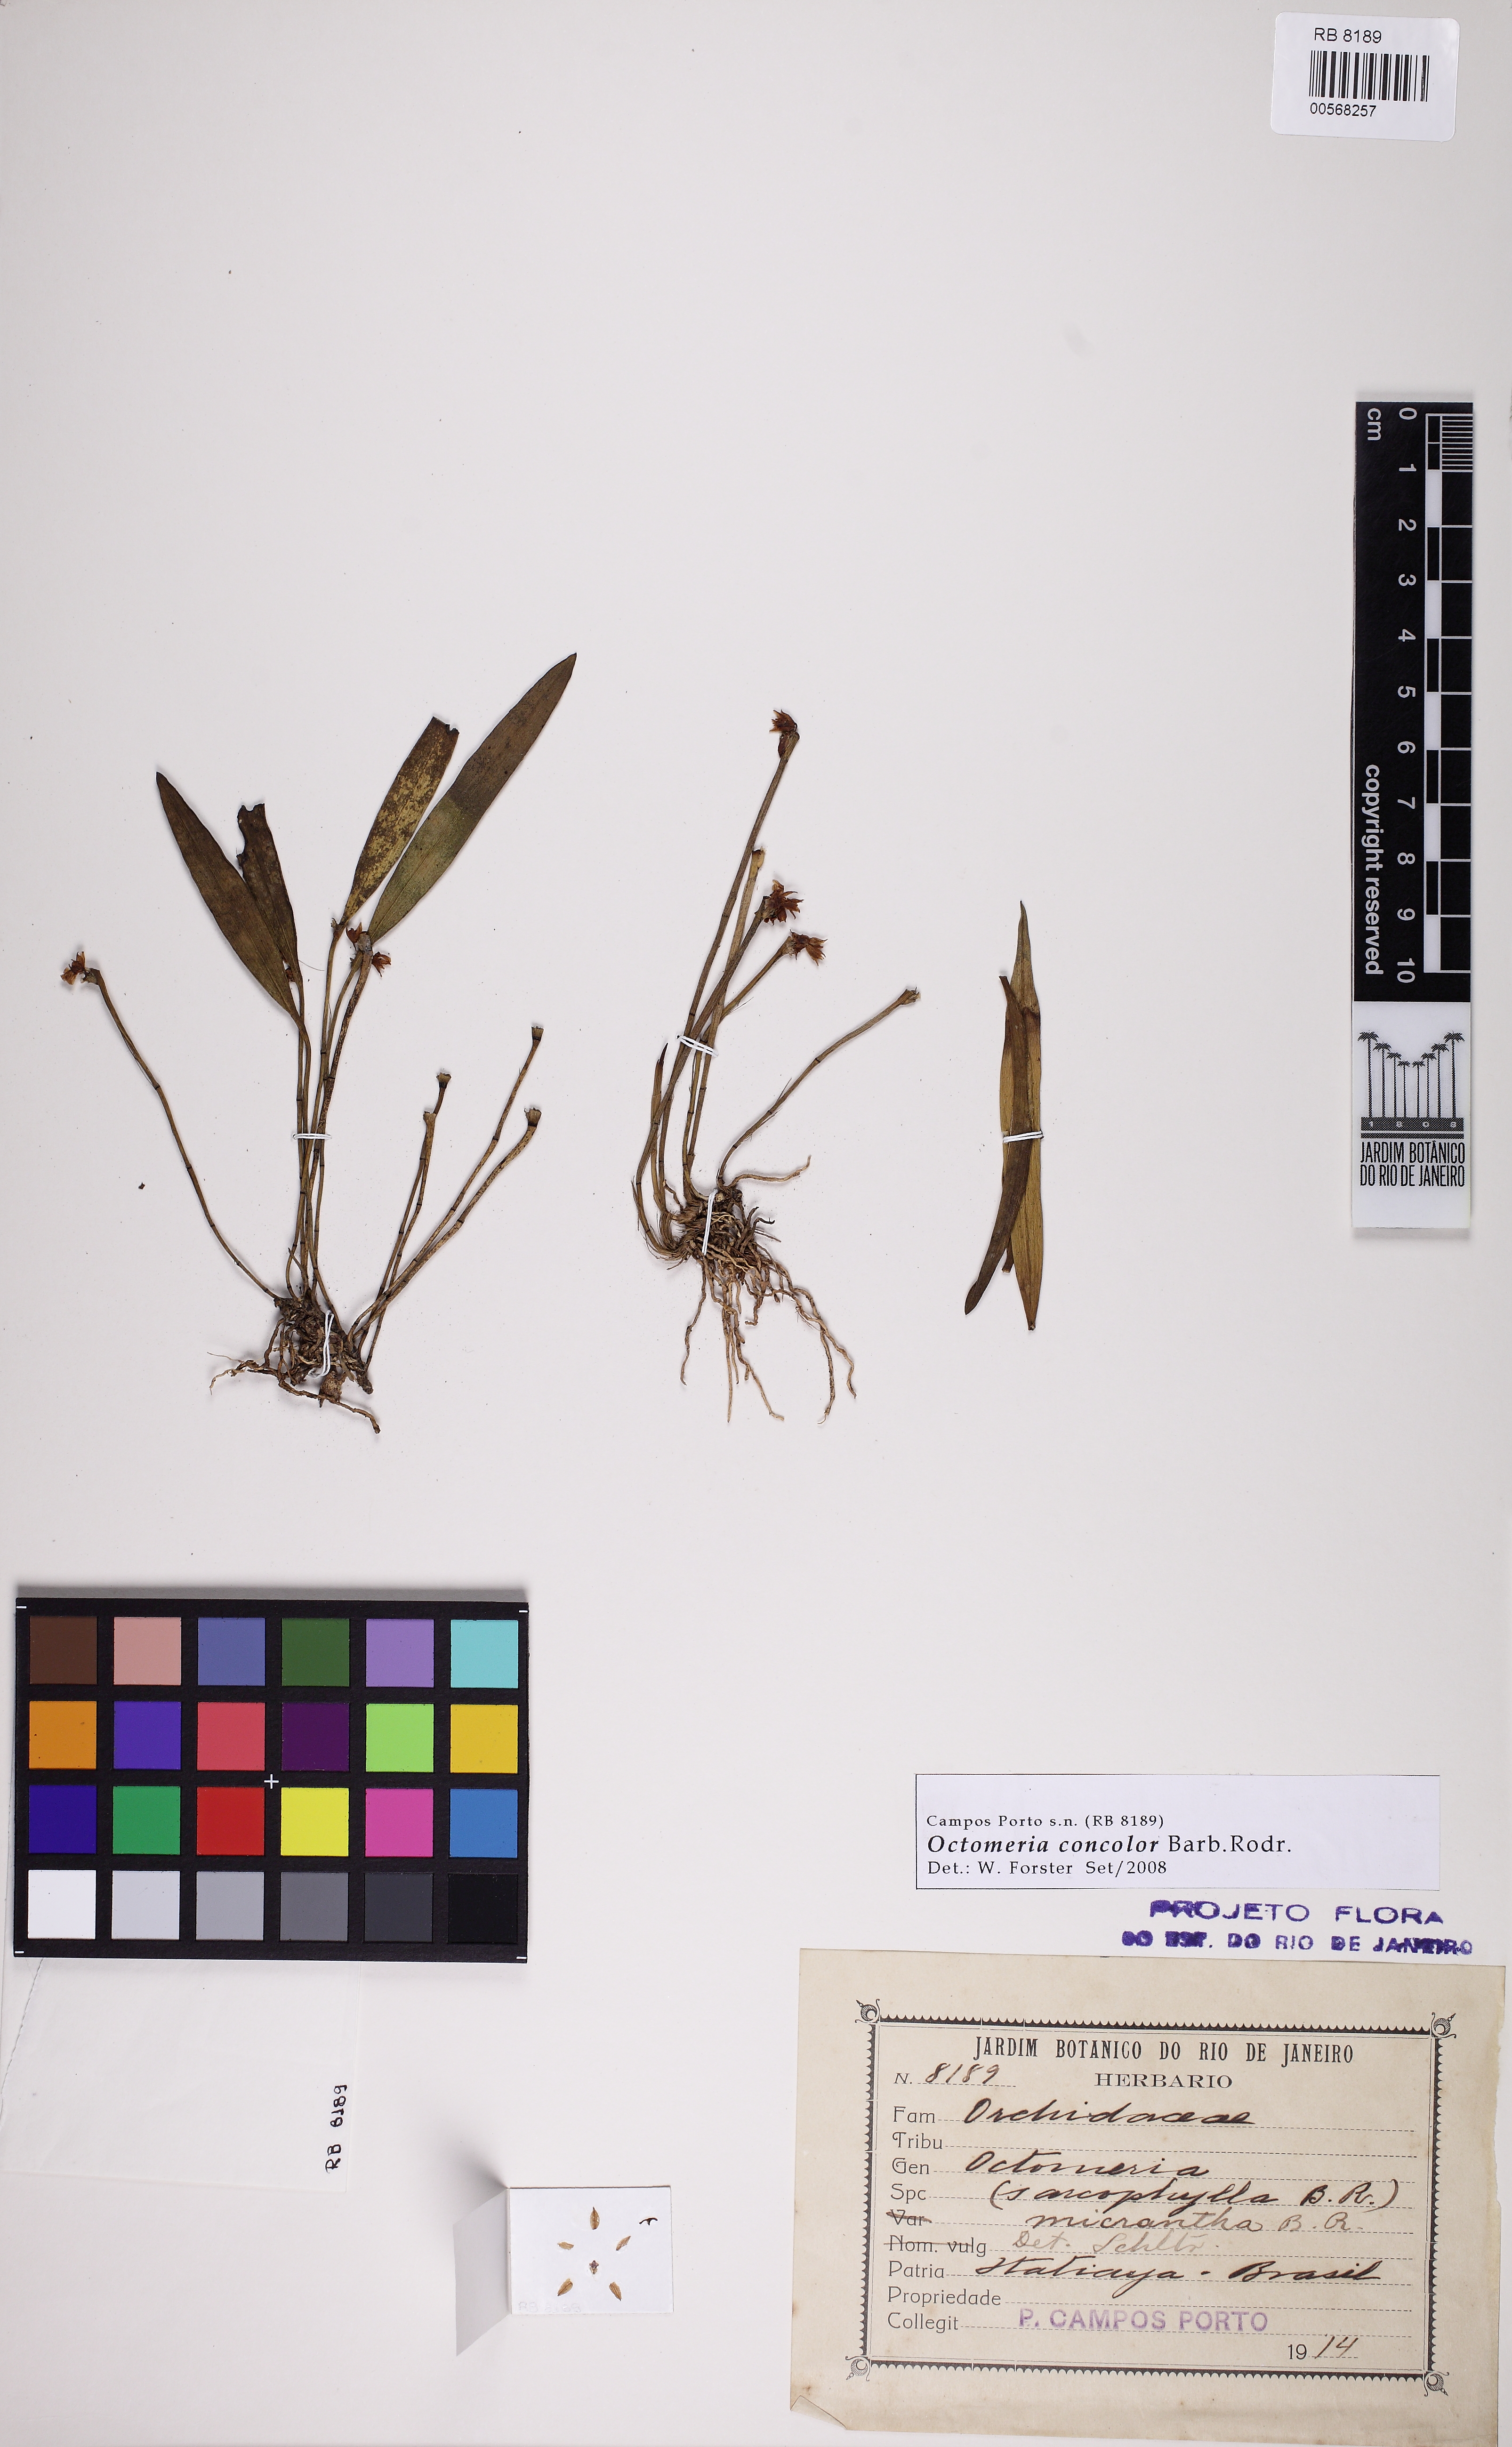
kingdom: Plantae
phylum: Tracheophyta
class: Liliopsida
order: Asparagales
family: Orchidaceae
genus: Octomeria
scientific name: Octomeria concolor
